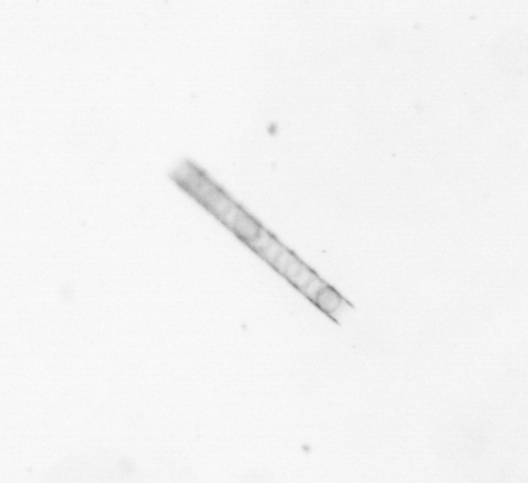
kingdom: Chromista
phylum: Ochrophyta
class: Bacillariophyceae
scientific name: Bacillariophyceae
